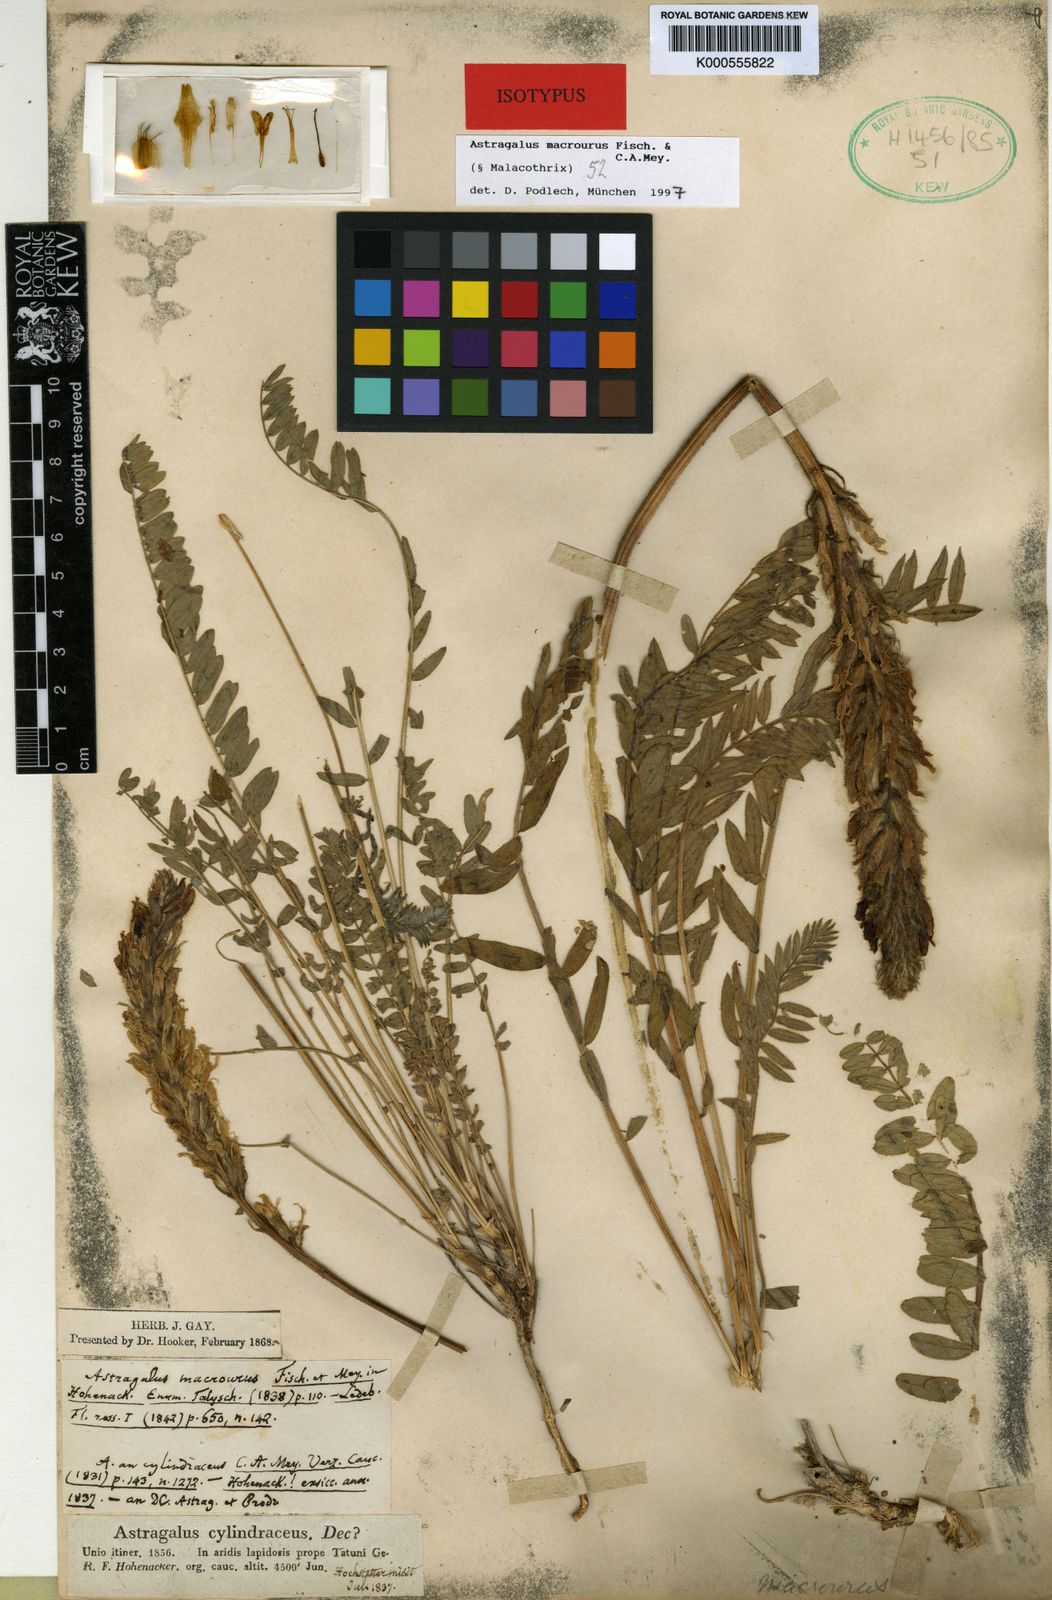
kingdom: Plantae
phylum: Tracheophyta
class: Magnoliopsida
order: Fabales
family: Fabaceae
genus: Astragalus
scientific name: Astragalus macrourus
